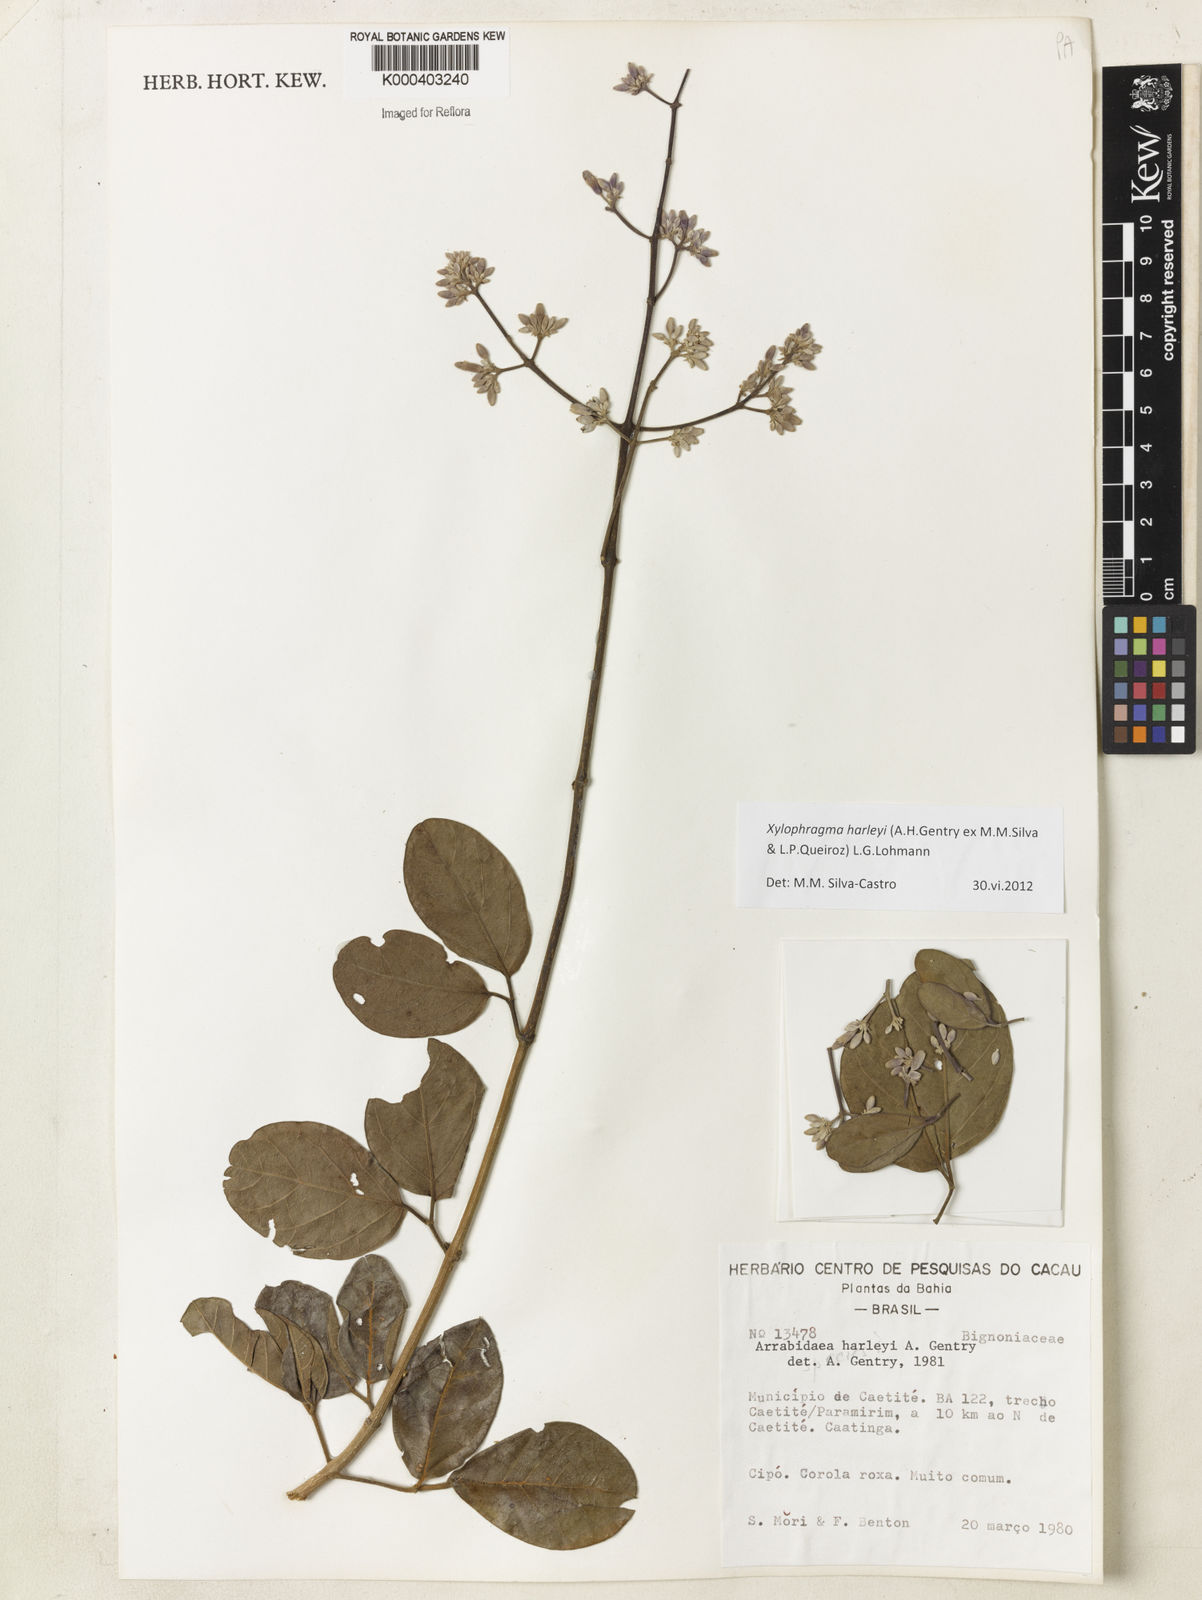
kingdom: Plantae
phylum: Tracheophyta
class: Magnoliopsida
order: Lamiales
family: Bignoniaceae
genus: Xylophragma
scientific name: Xylophragma harleyi
